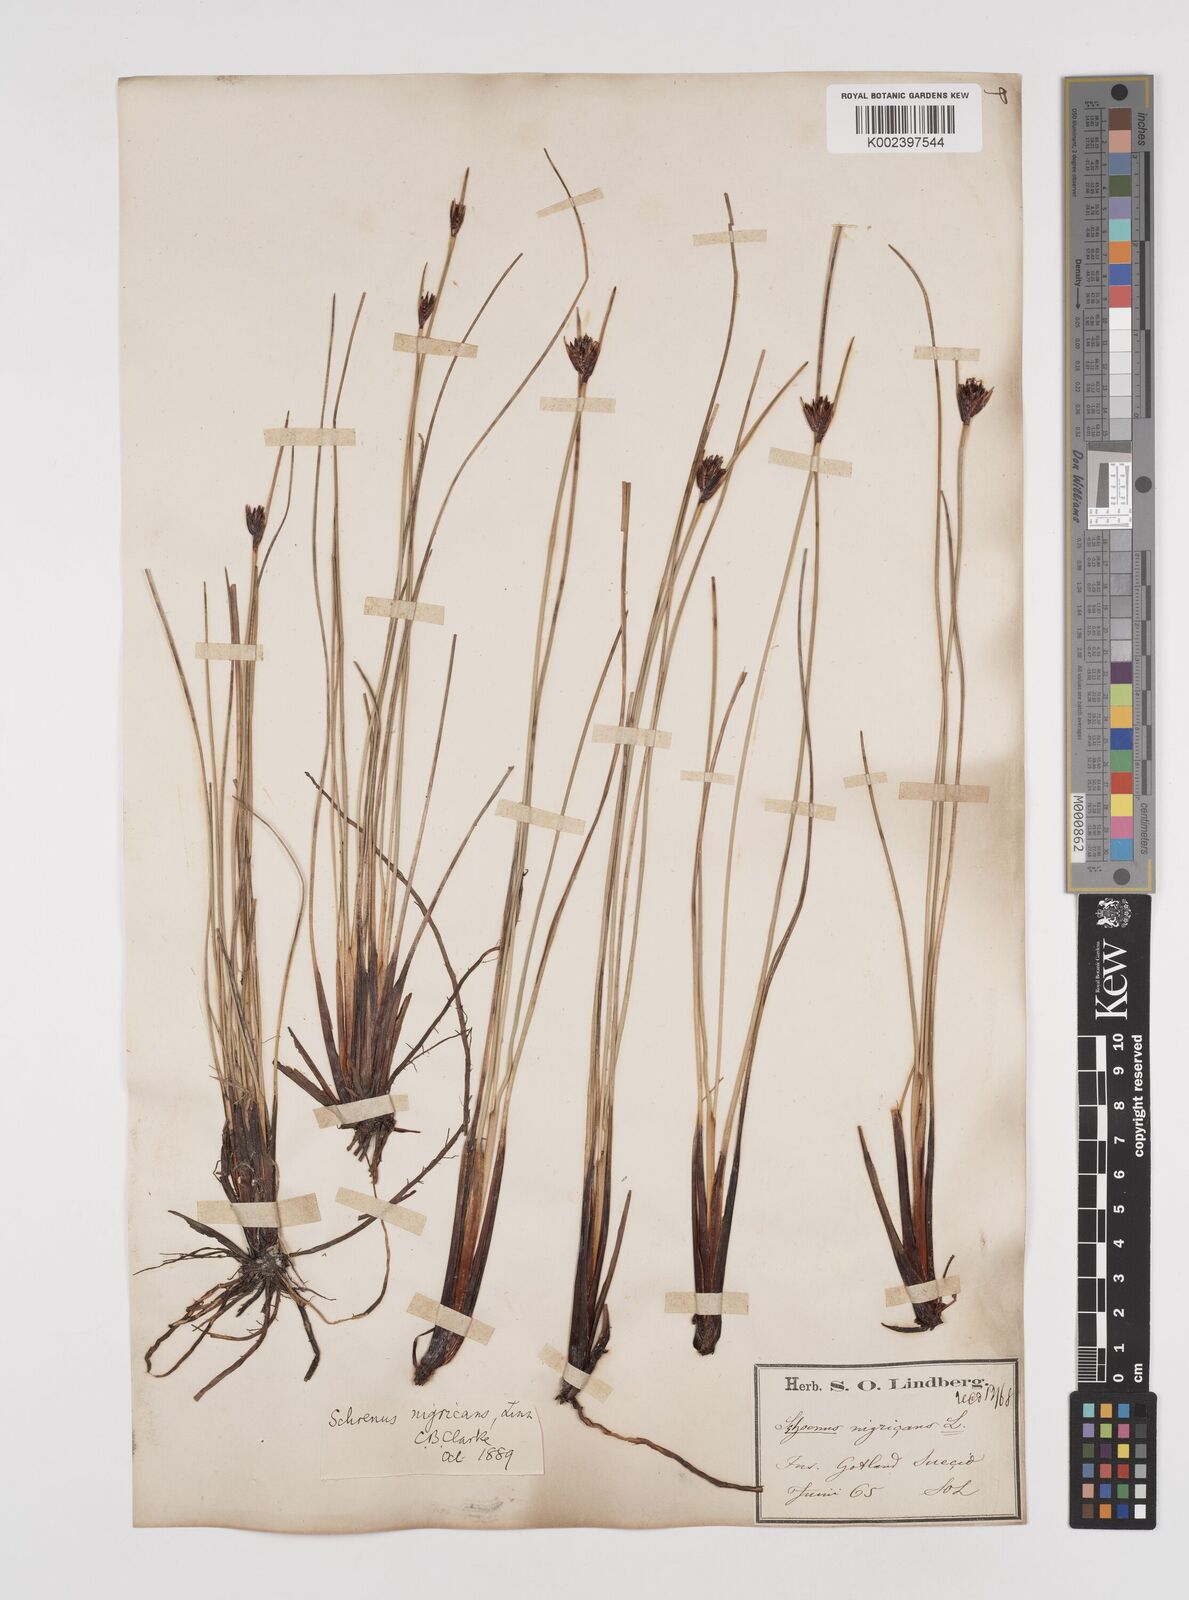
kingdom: Plantae
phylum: Tracheophyta
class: Liliopsida
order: Poales
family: Cyperaceae
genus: Schoenus
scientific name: Schoenus nigricans
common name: Black bog-rush
